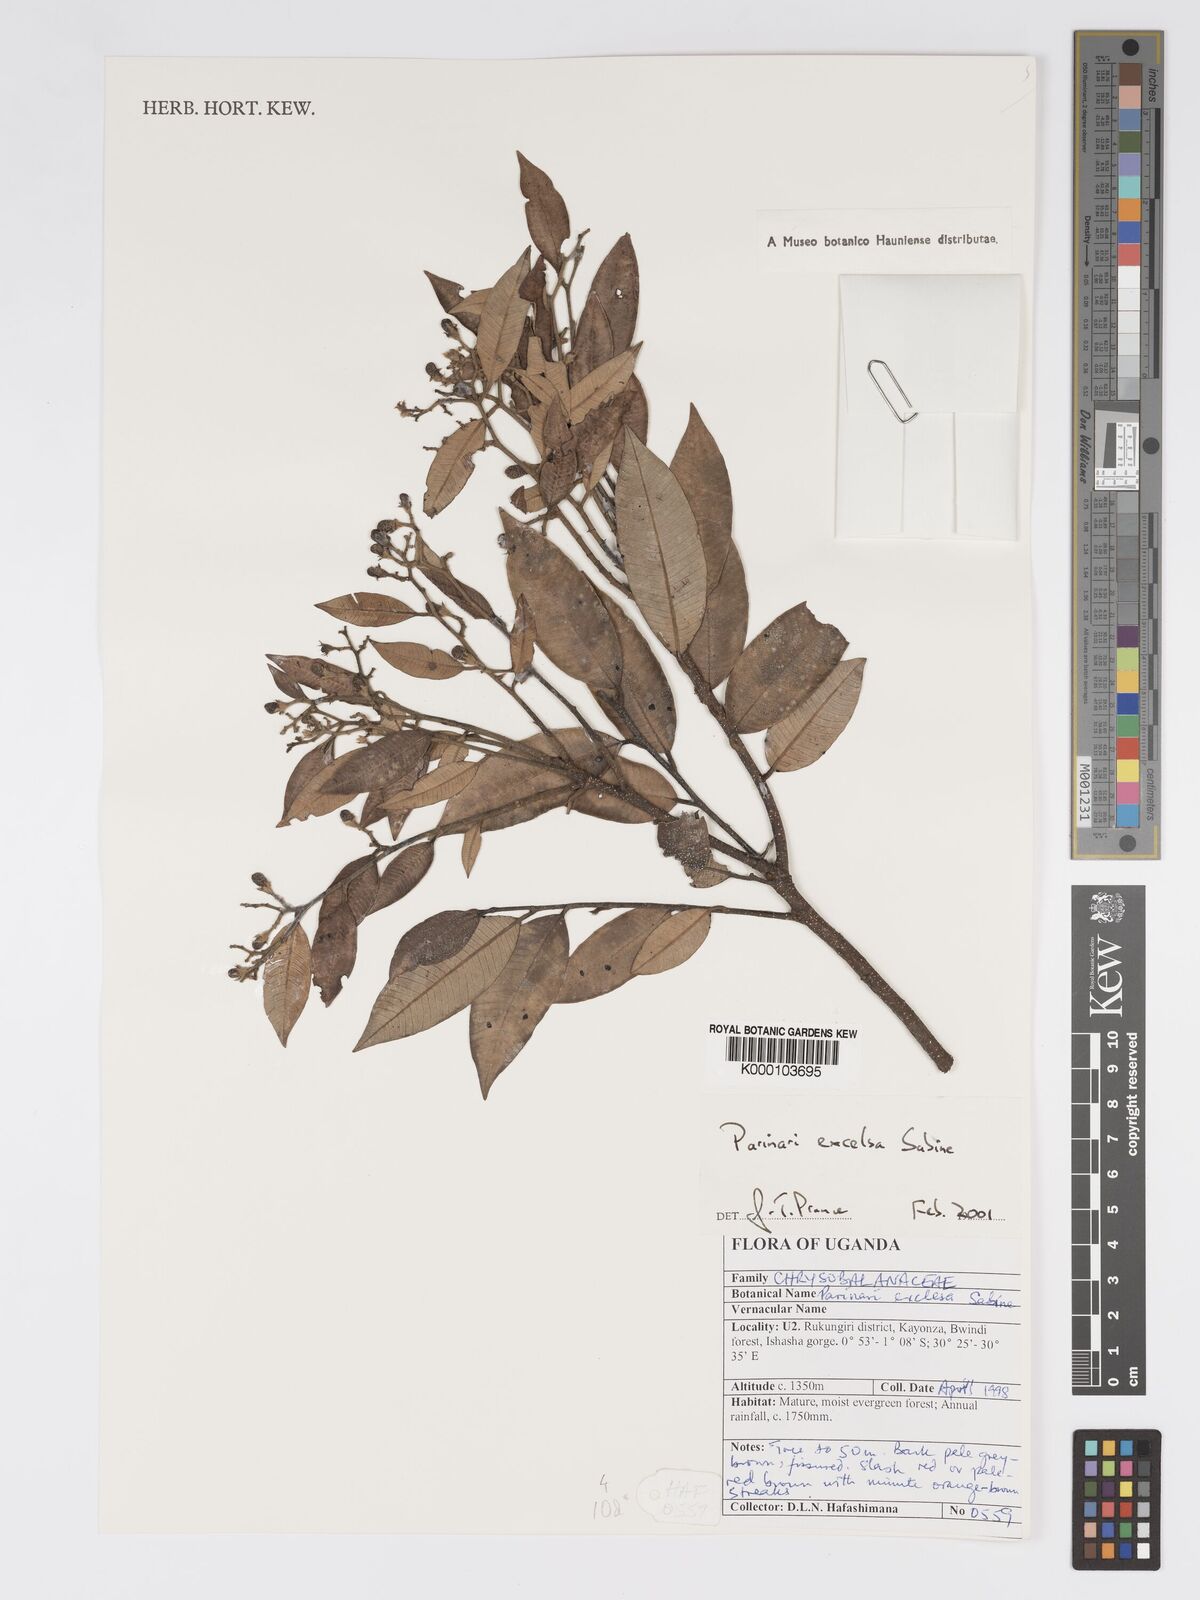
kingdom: Plantae
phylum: Tracheophyta
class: Magnoliopsida
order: Malpighiales
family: Chrysobalanaceae
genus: Parinari
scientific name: Parinari excelsa
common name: Guinea-plum
